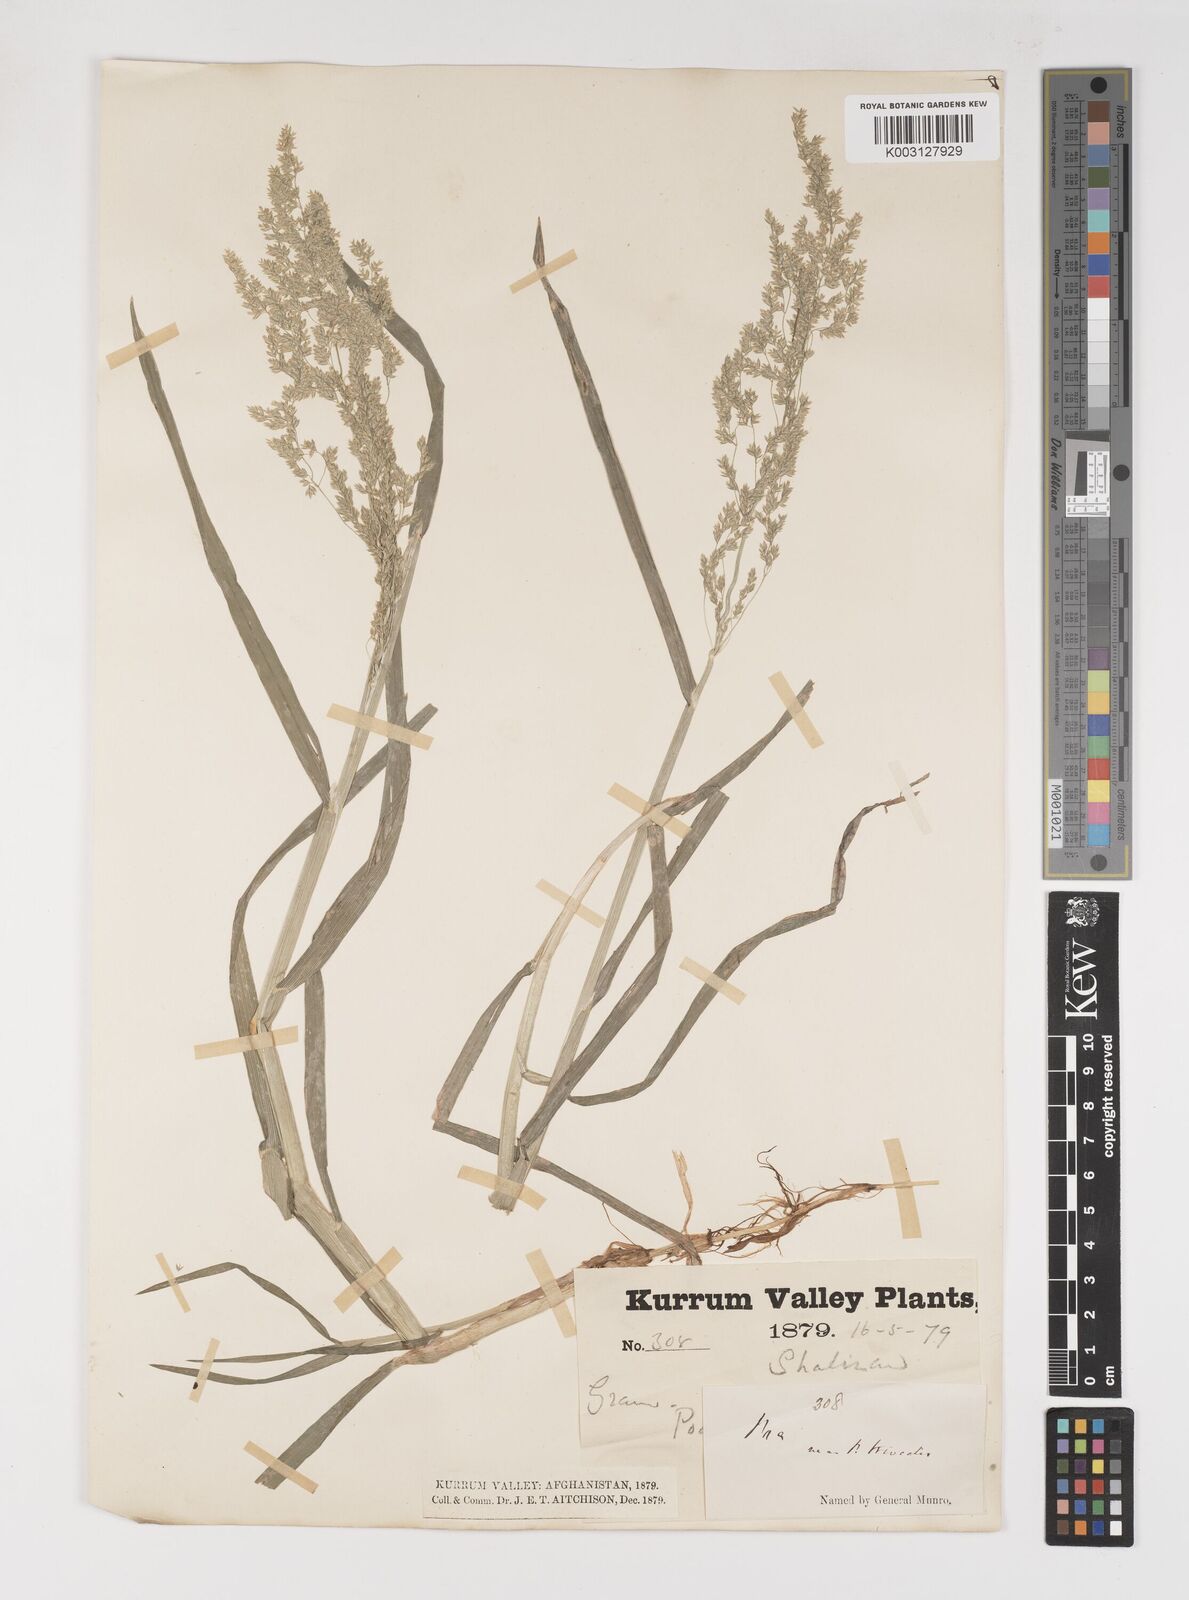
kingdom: Plantae
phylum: Tracheophyta
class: Liliopsida
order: Poales
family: Poaceae
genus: Poa
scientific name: Poa trivialis
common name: Rough bluegrass
